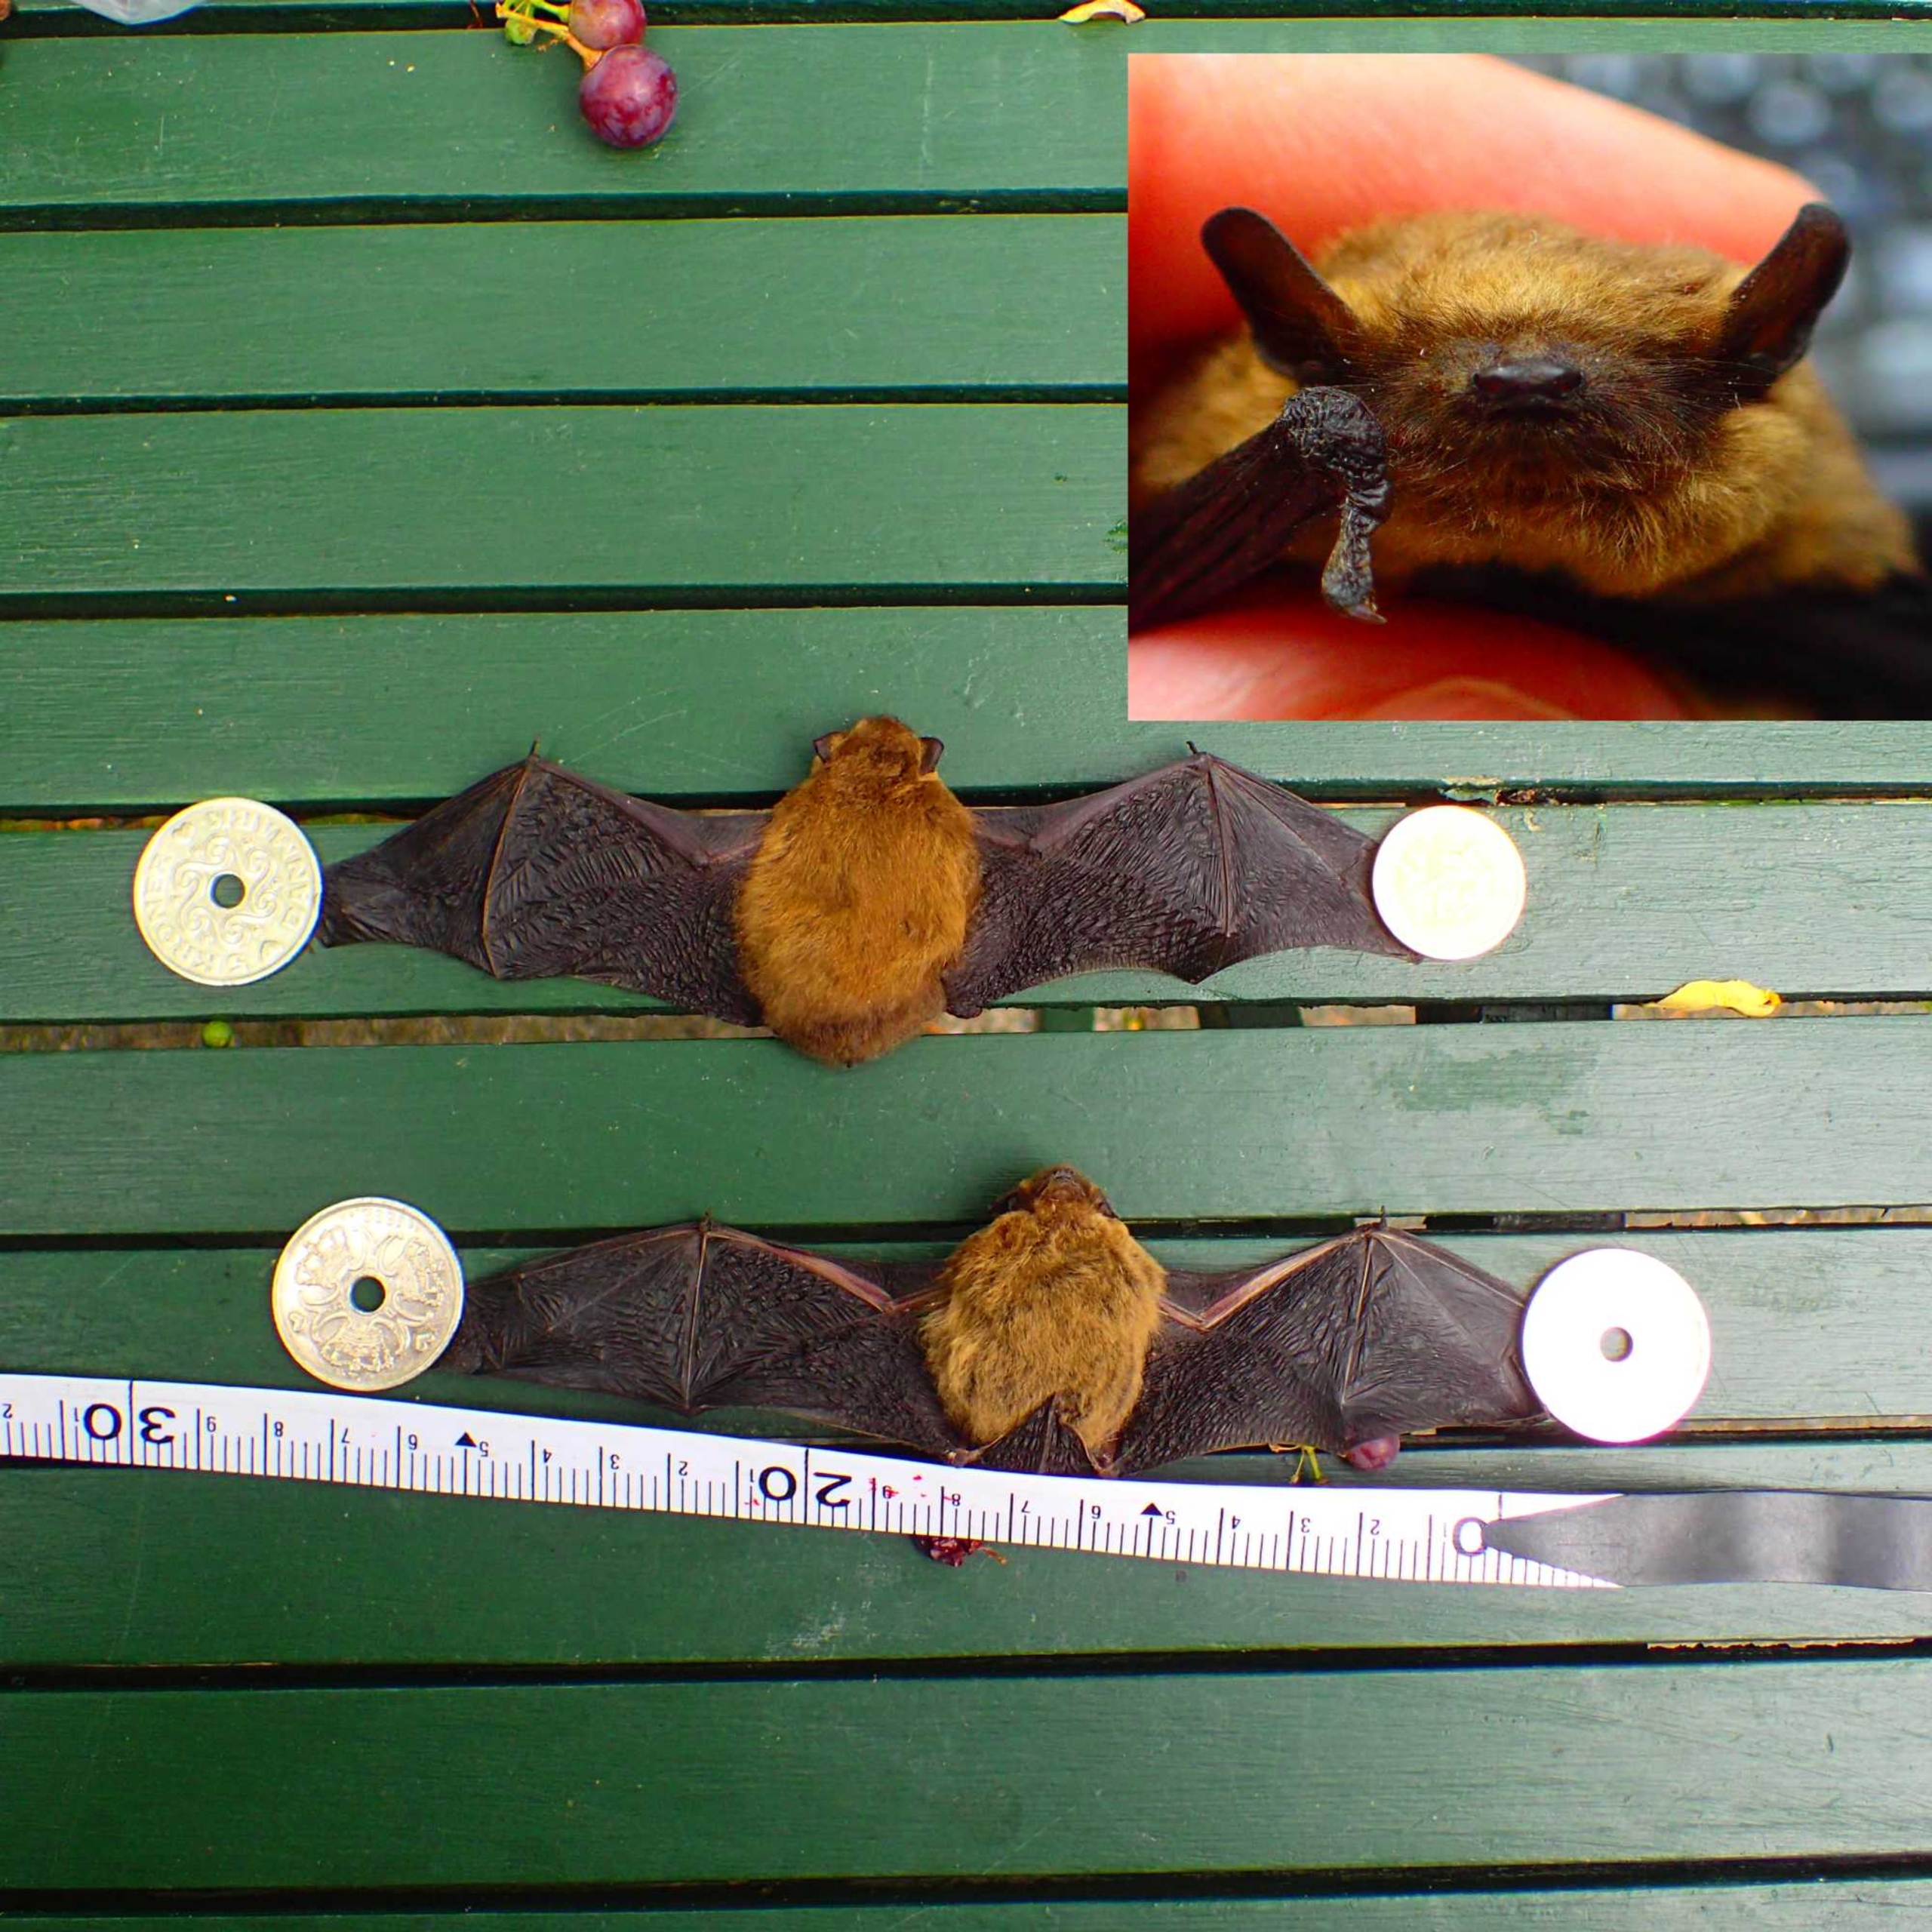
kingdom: Animalia
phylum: Chordata
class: Mammalia
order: Chiroptera
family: Vespertilionidae
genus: Pipistrellus
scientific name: Pipistrellus pygmaeus
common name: Dværgflagermus
